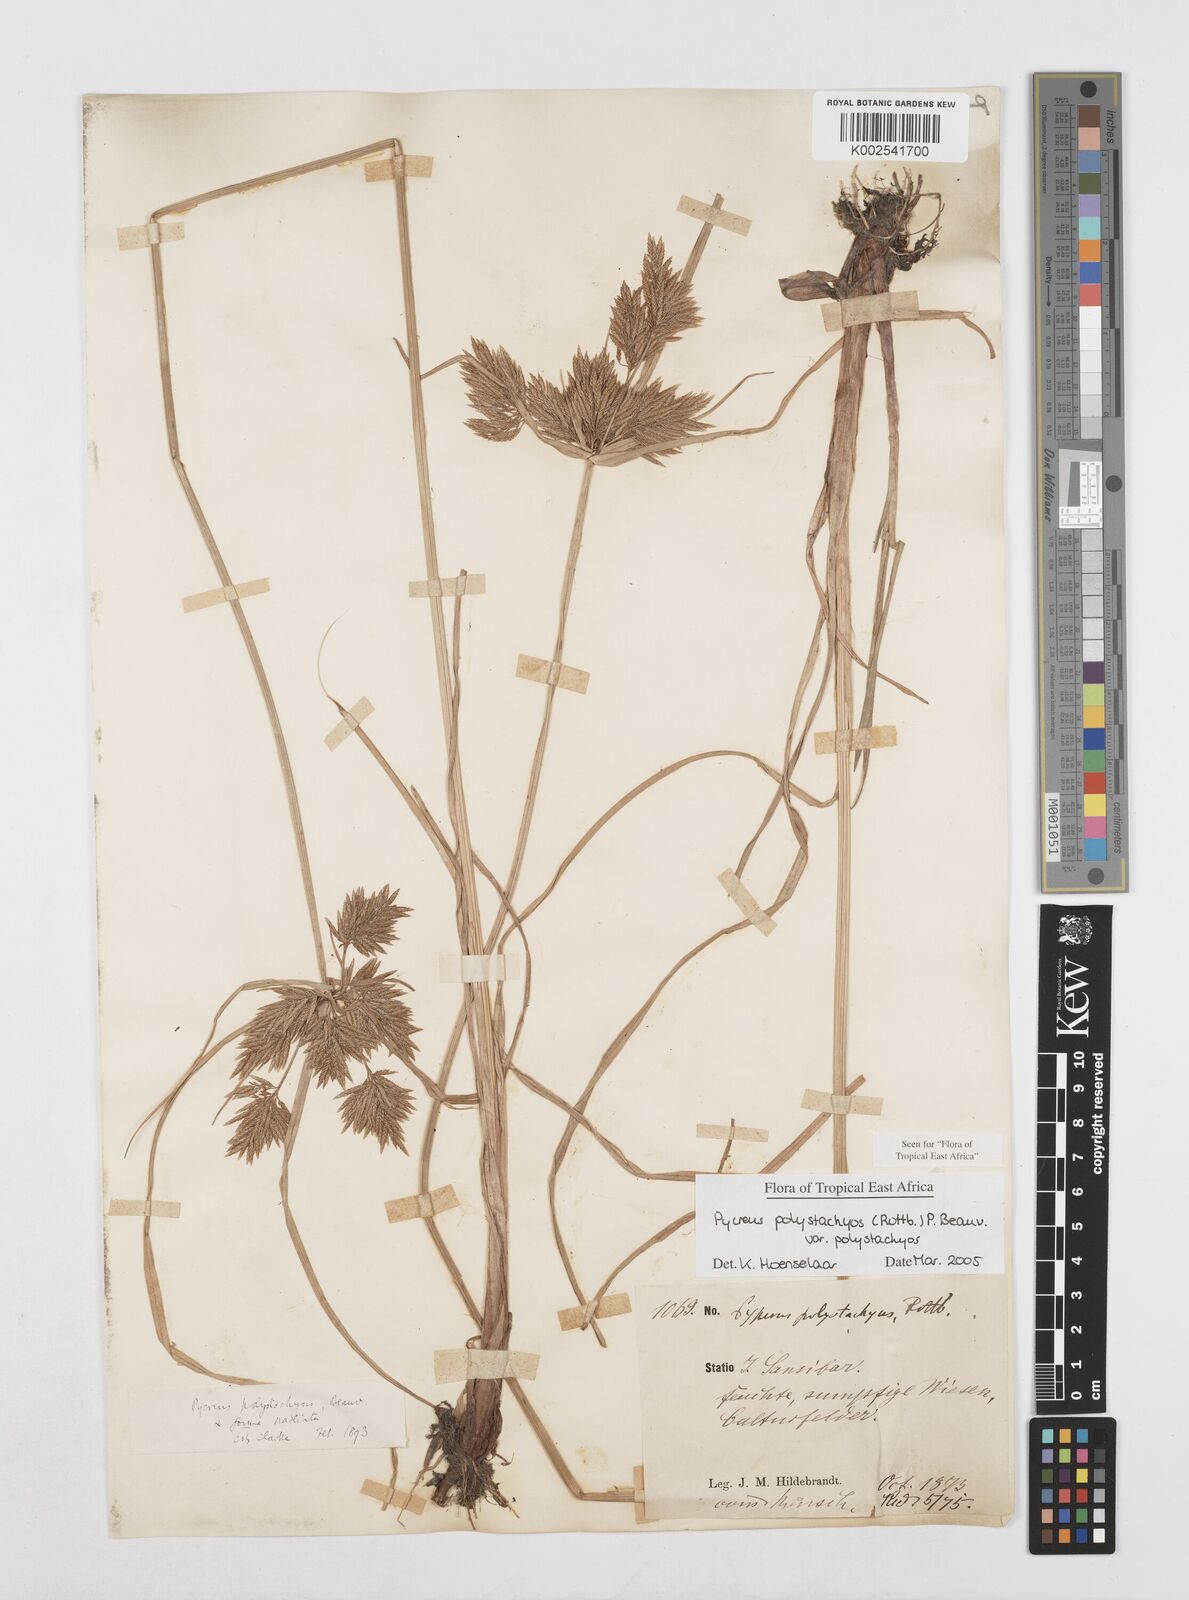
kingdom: Plantae
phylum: Tracheophyta
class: Liliopsida
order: Poales
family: Cyperaceae
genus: Cyperus
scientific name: Cyperus polystachyos
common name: Bunchy flat sedge
